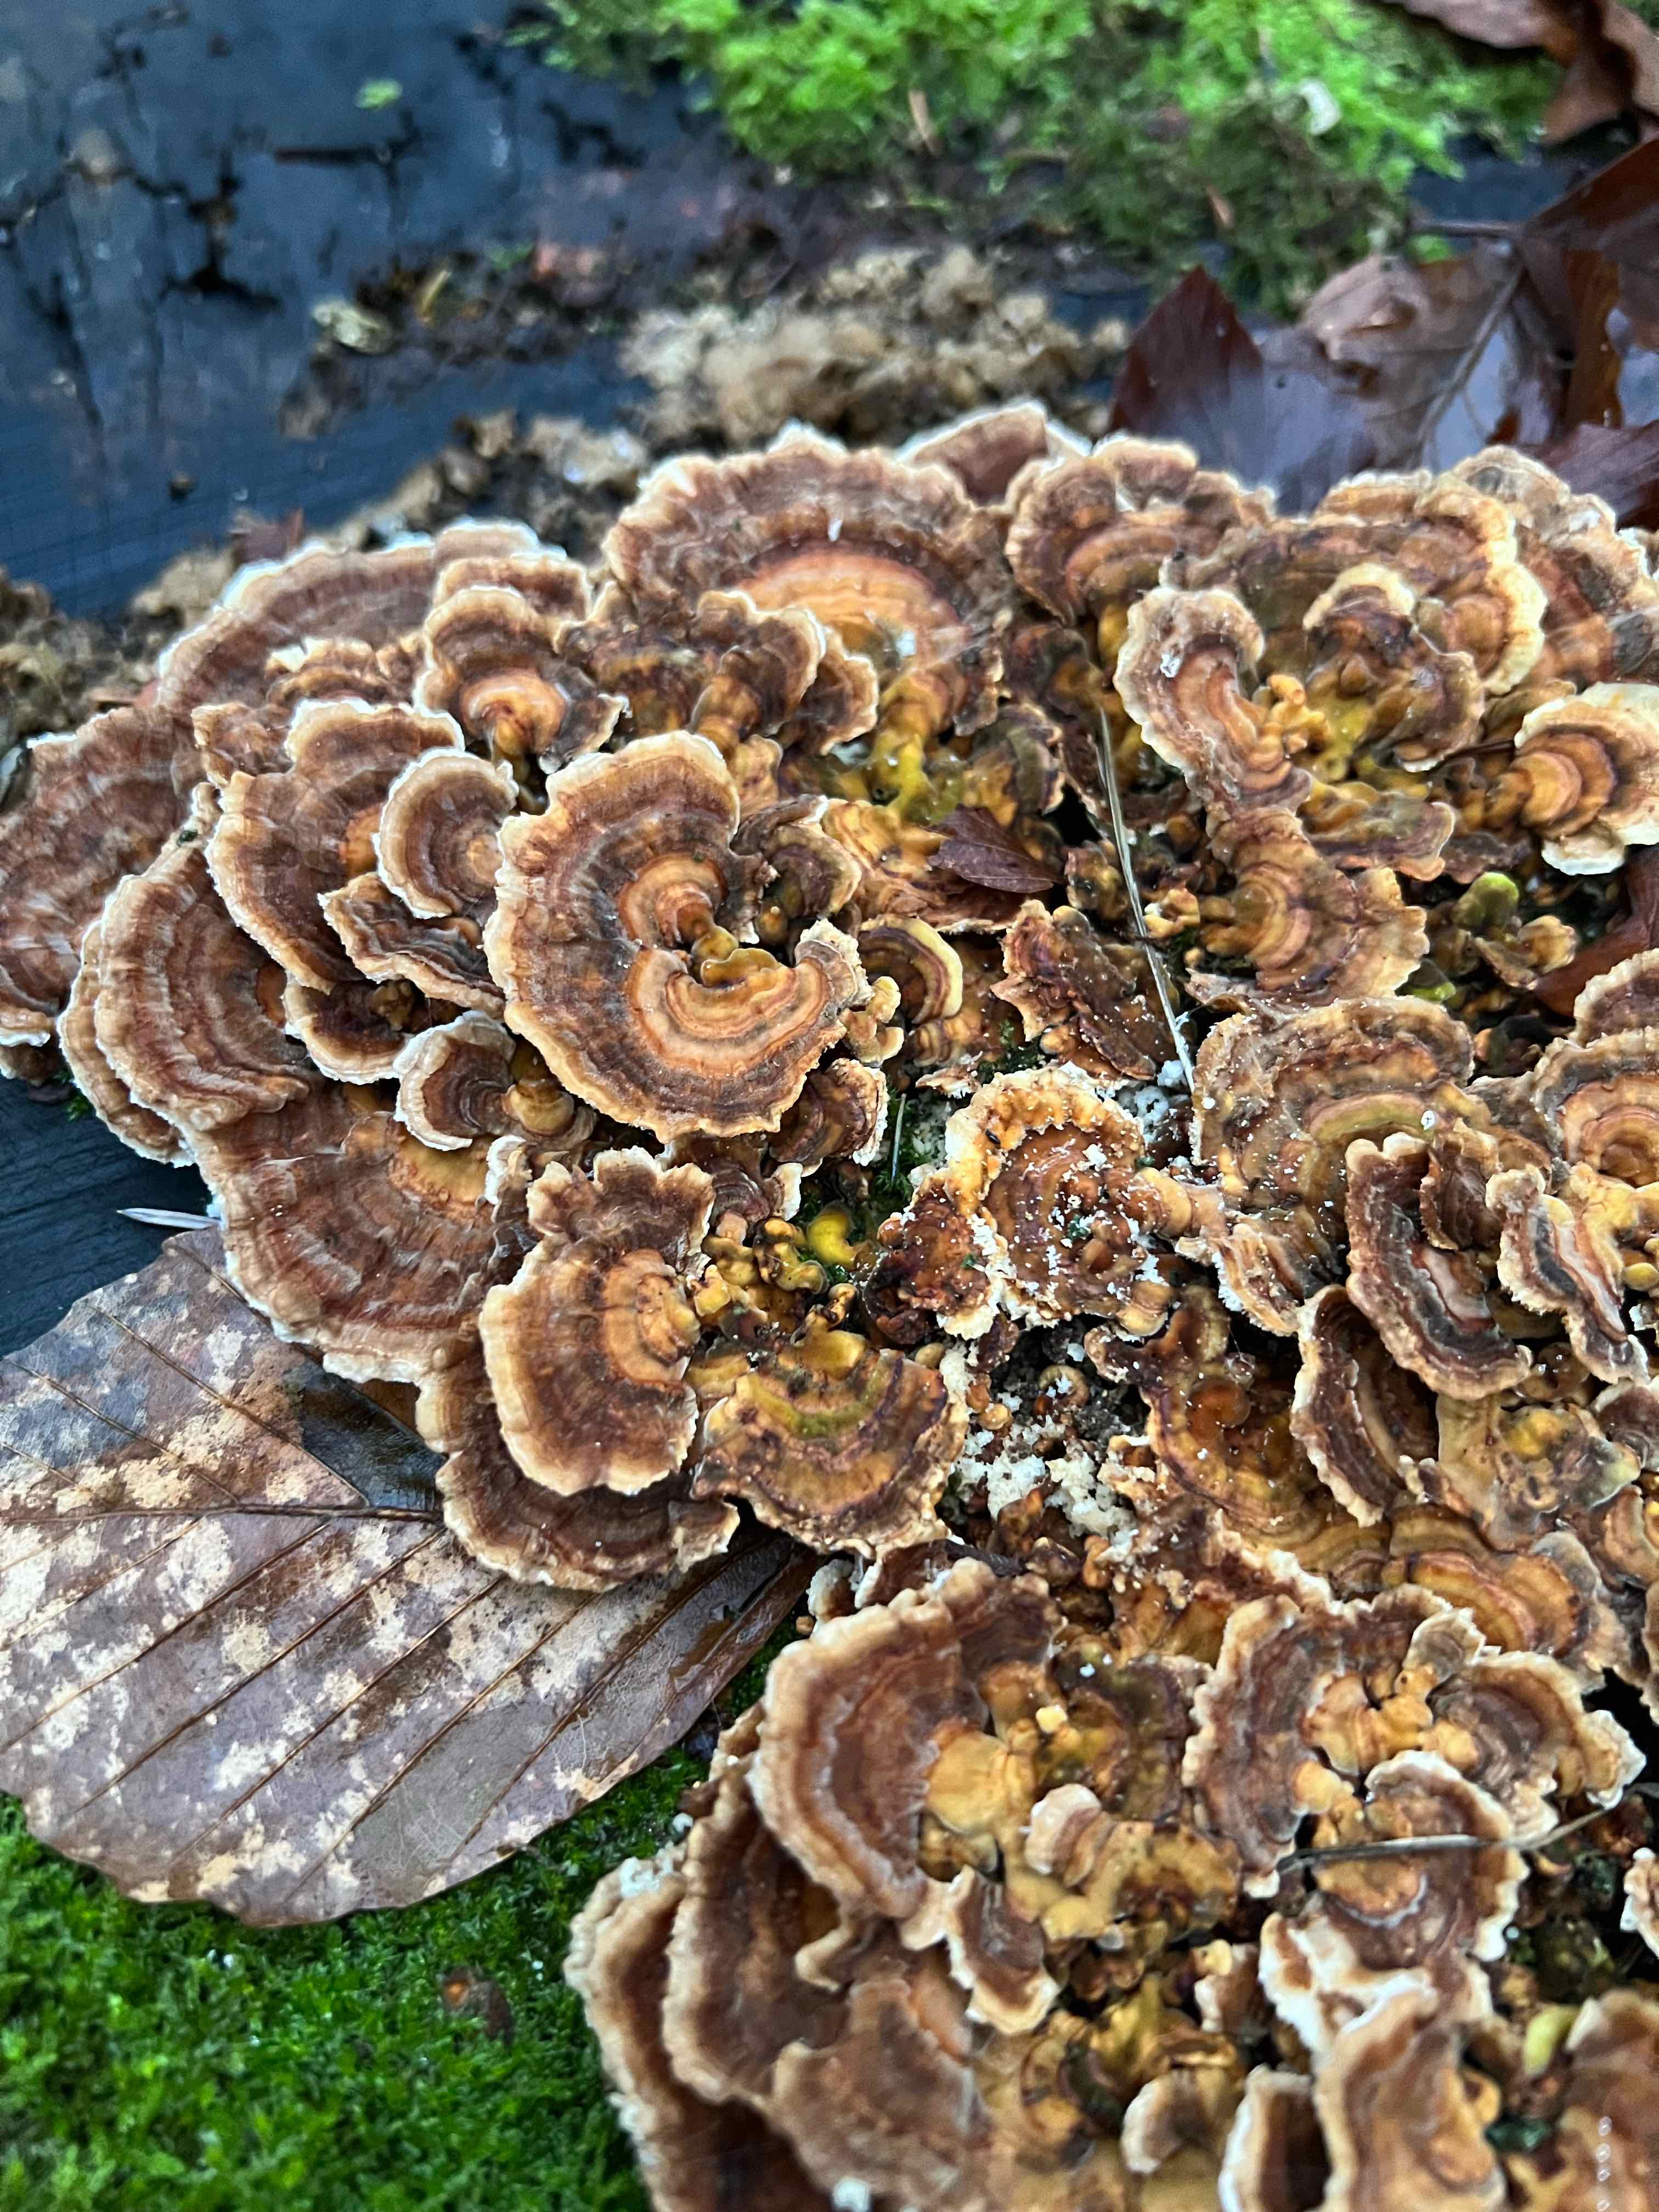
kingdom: Fungi
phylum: Basidiomycota
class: Agaricomycetes
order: Polyporales
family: Polyporaceae
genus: Trametes
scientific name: Trametes versicolor
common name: broget læderporesvamp
